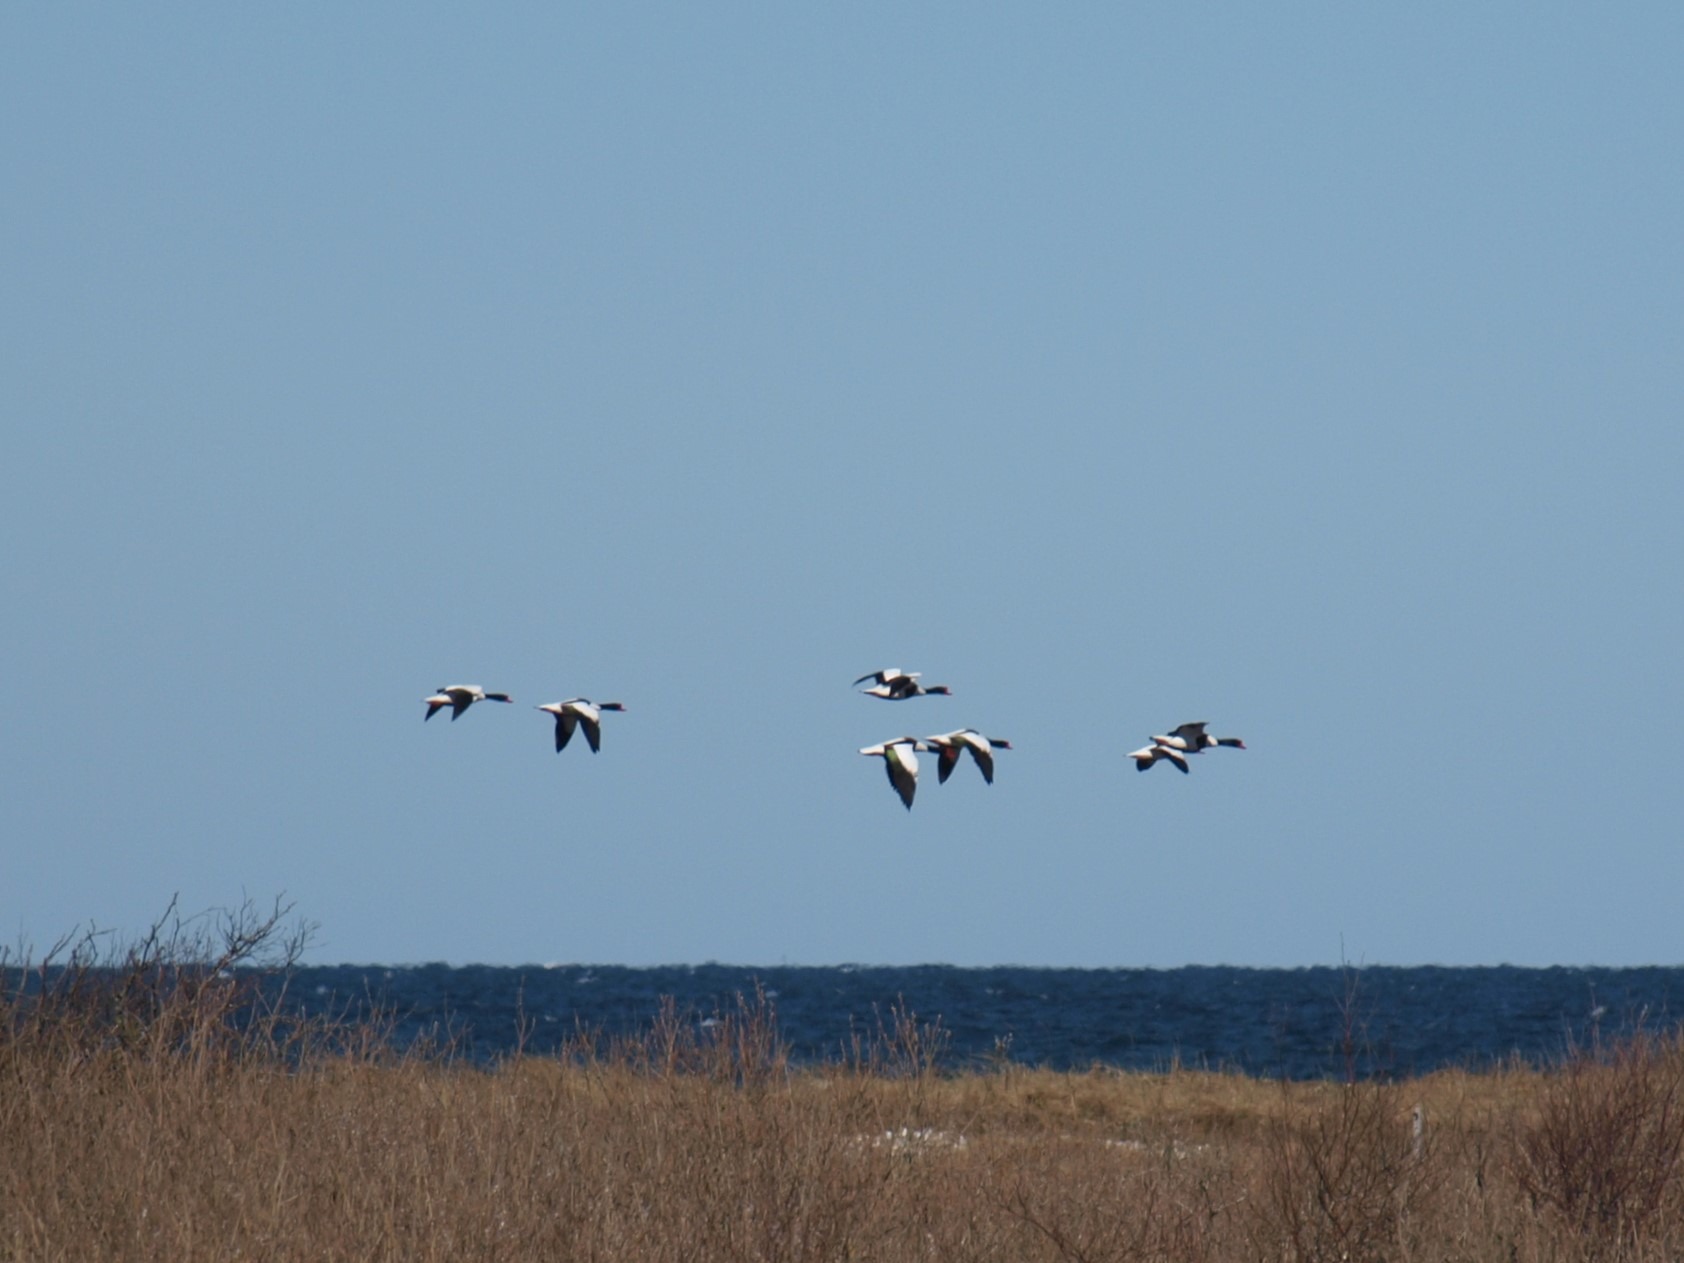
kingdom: Animalia
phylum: Chordata
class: Aves
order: Anseriformes
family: Anatidae
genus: Tadorna
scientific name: Tadorna tadorna
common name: Gravand
